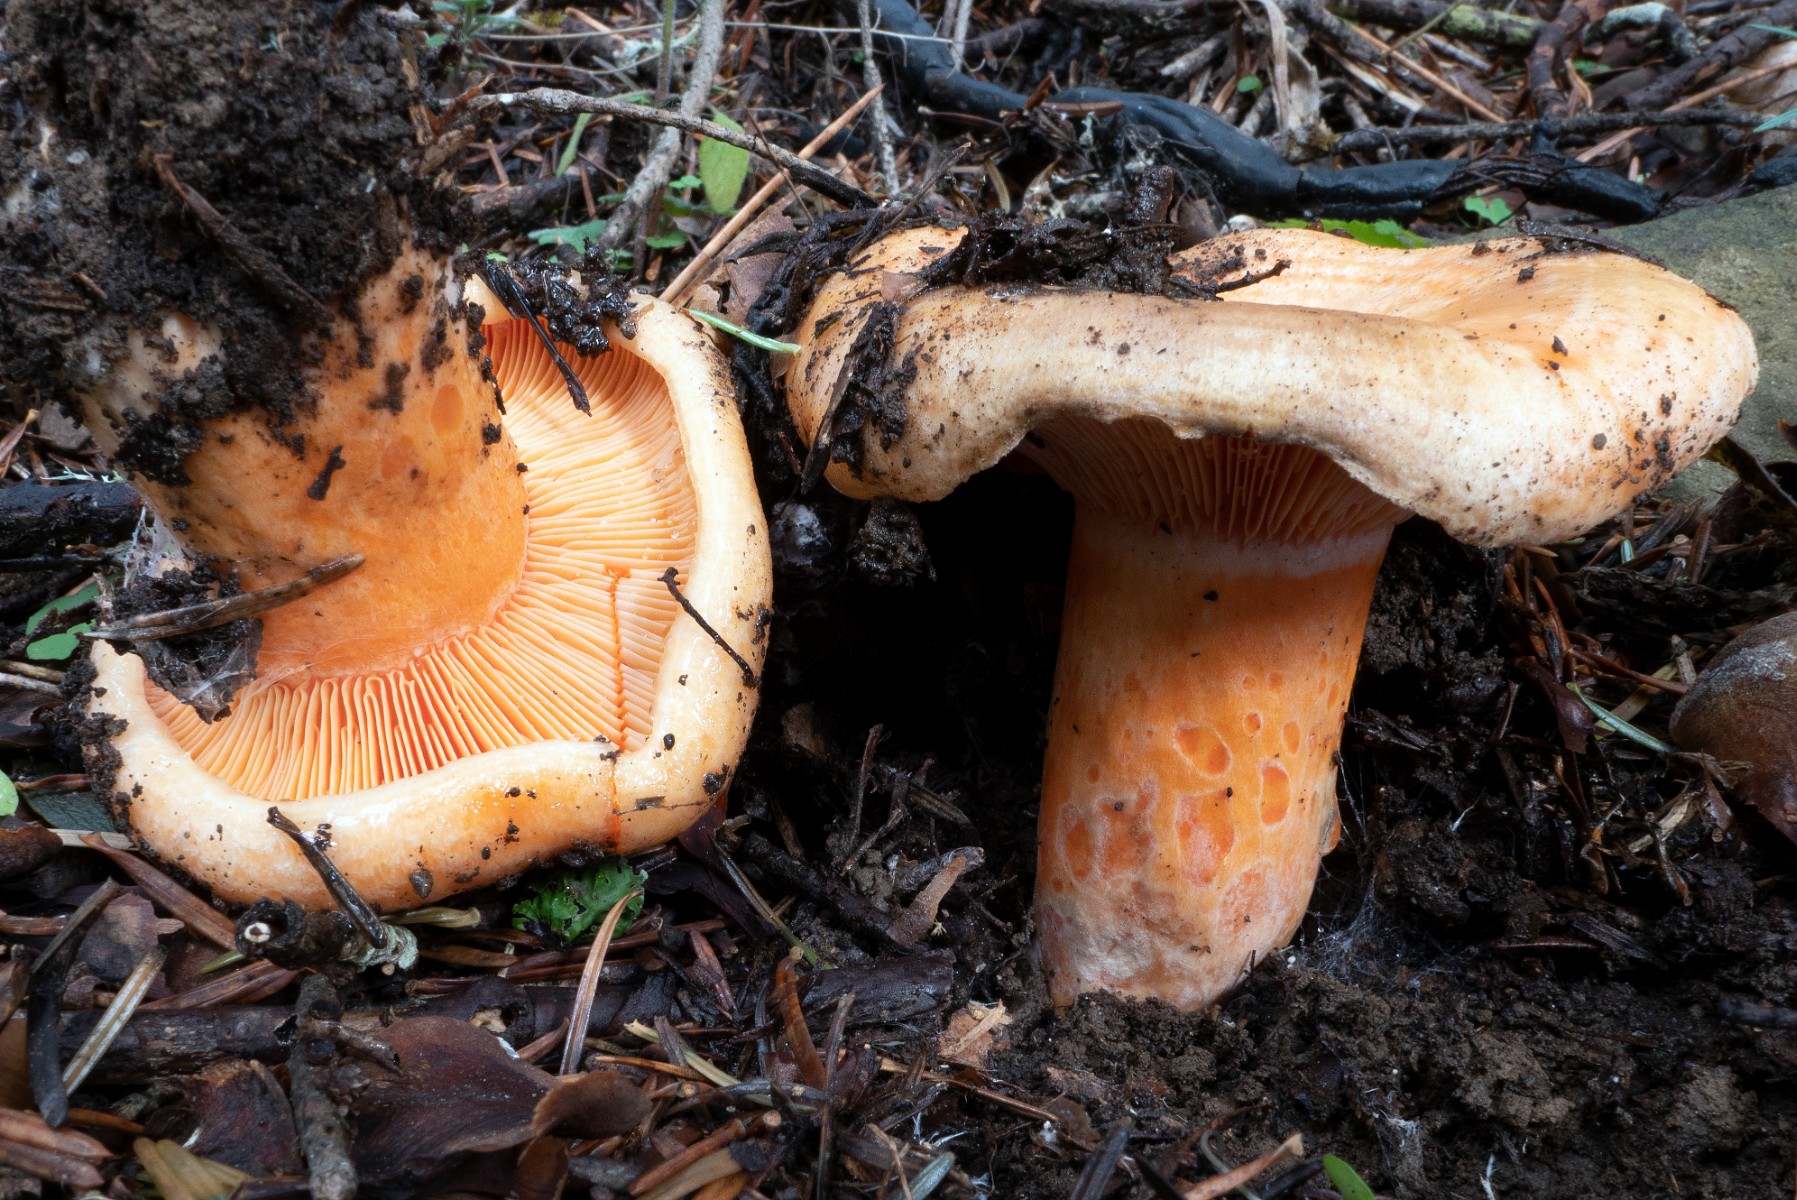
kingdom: Fungi
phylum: Basidiomycota
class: Agaricomycetes
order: Russulales
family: Russulaceae
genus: Lactarius
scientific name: Lactarius salmonicolor
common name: laksefarvet mælkehat
